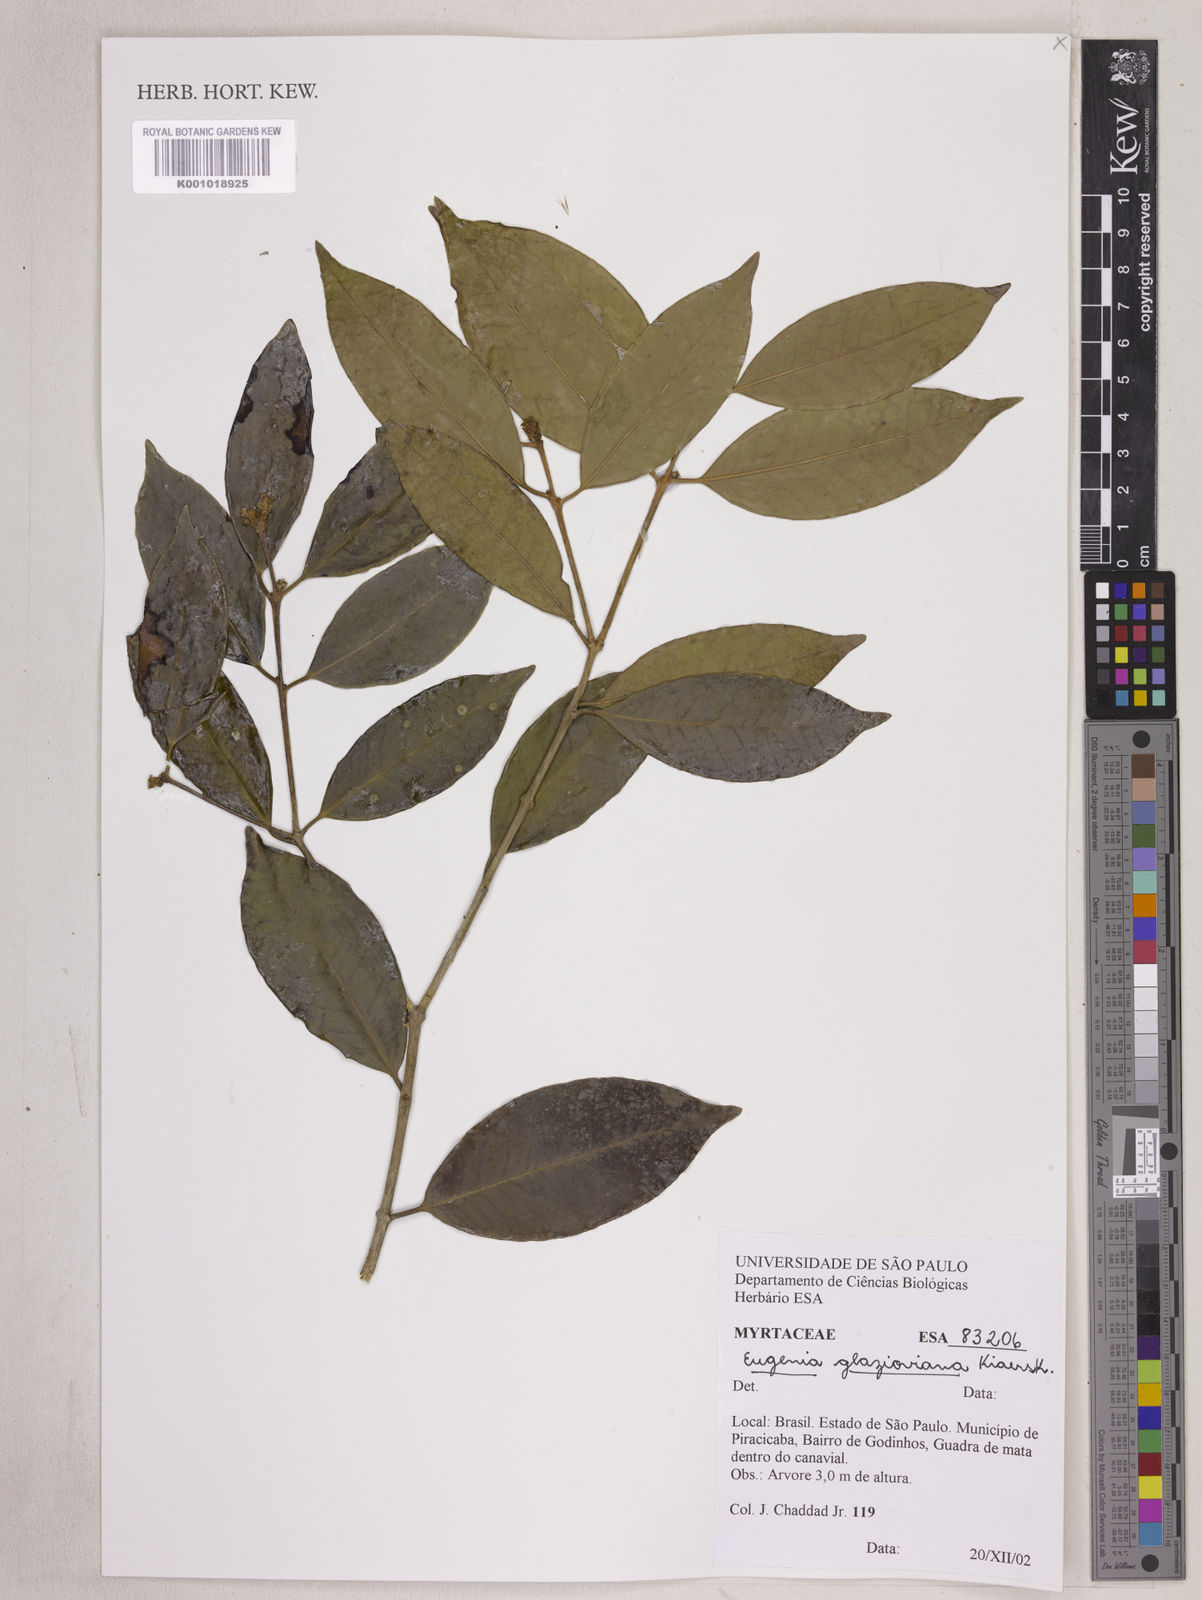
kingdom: Plantae
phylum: Tracheophyta
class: Magnoliopsida
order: Myrtales
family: Myrtaceae
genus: Eugenia
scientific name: Eugenia francavilleana
